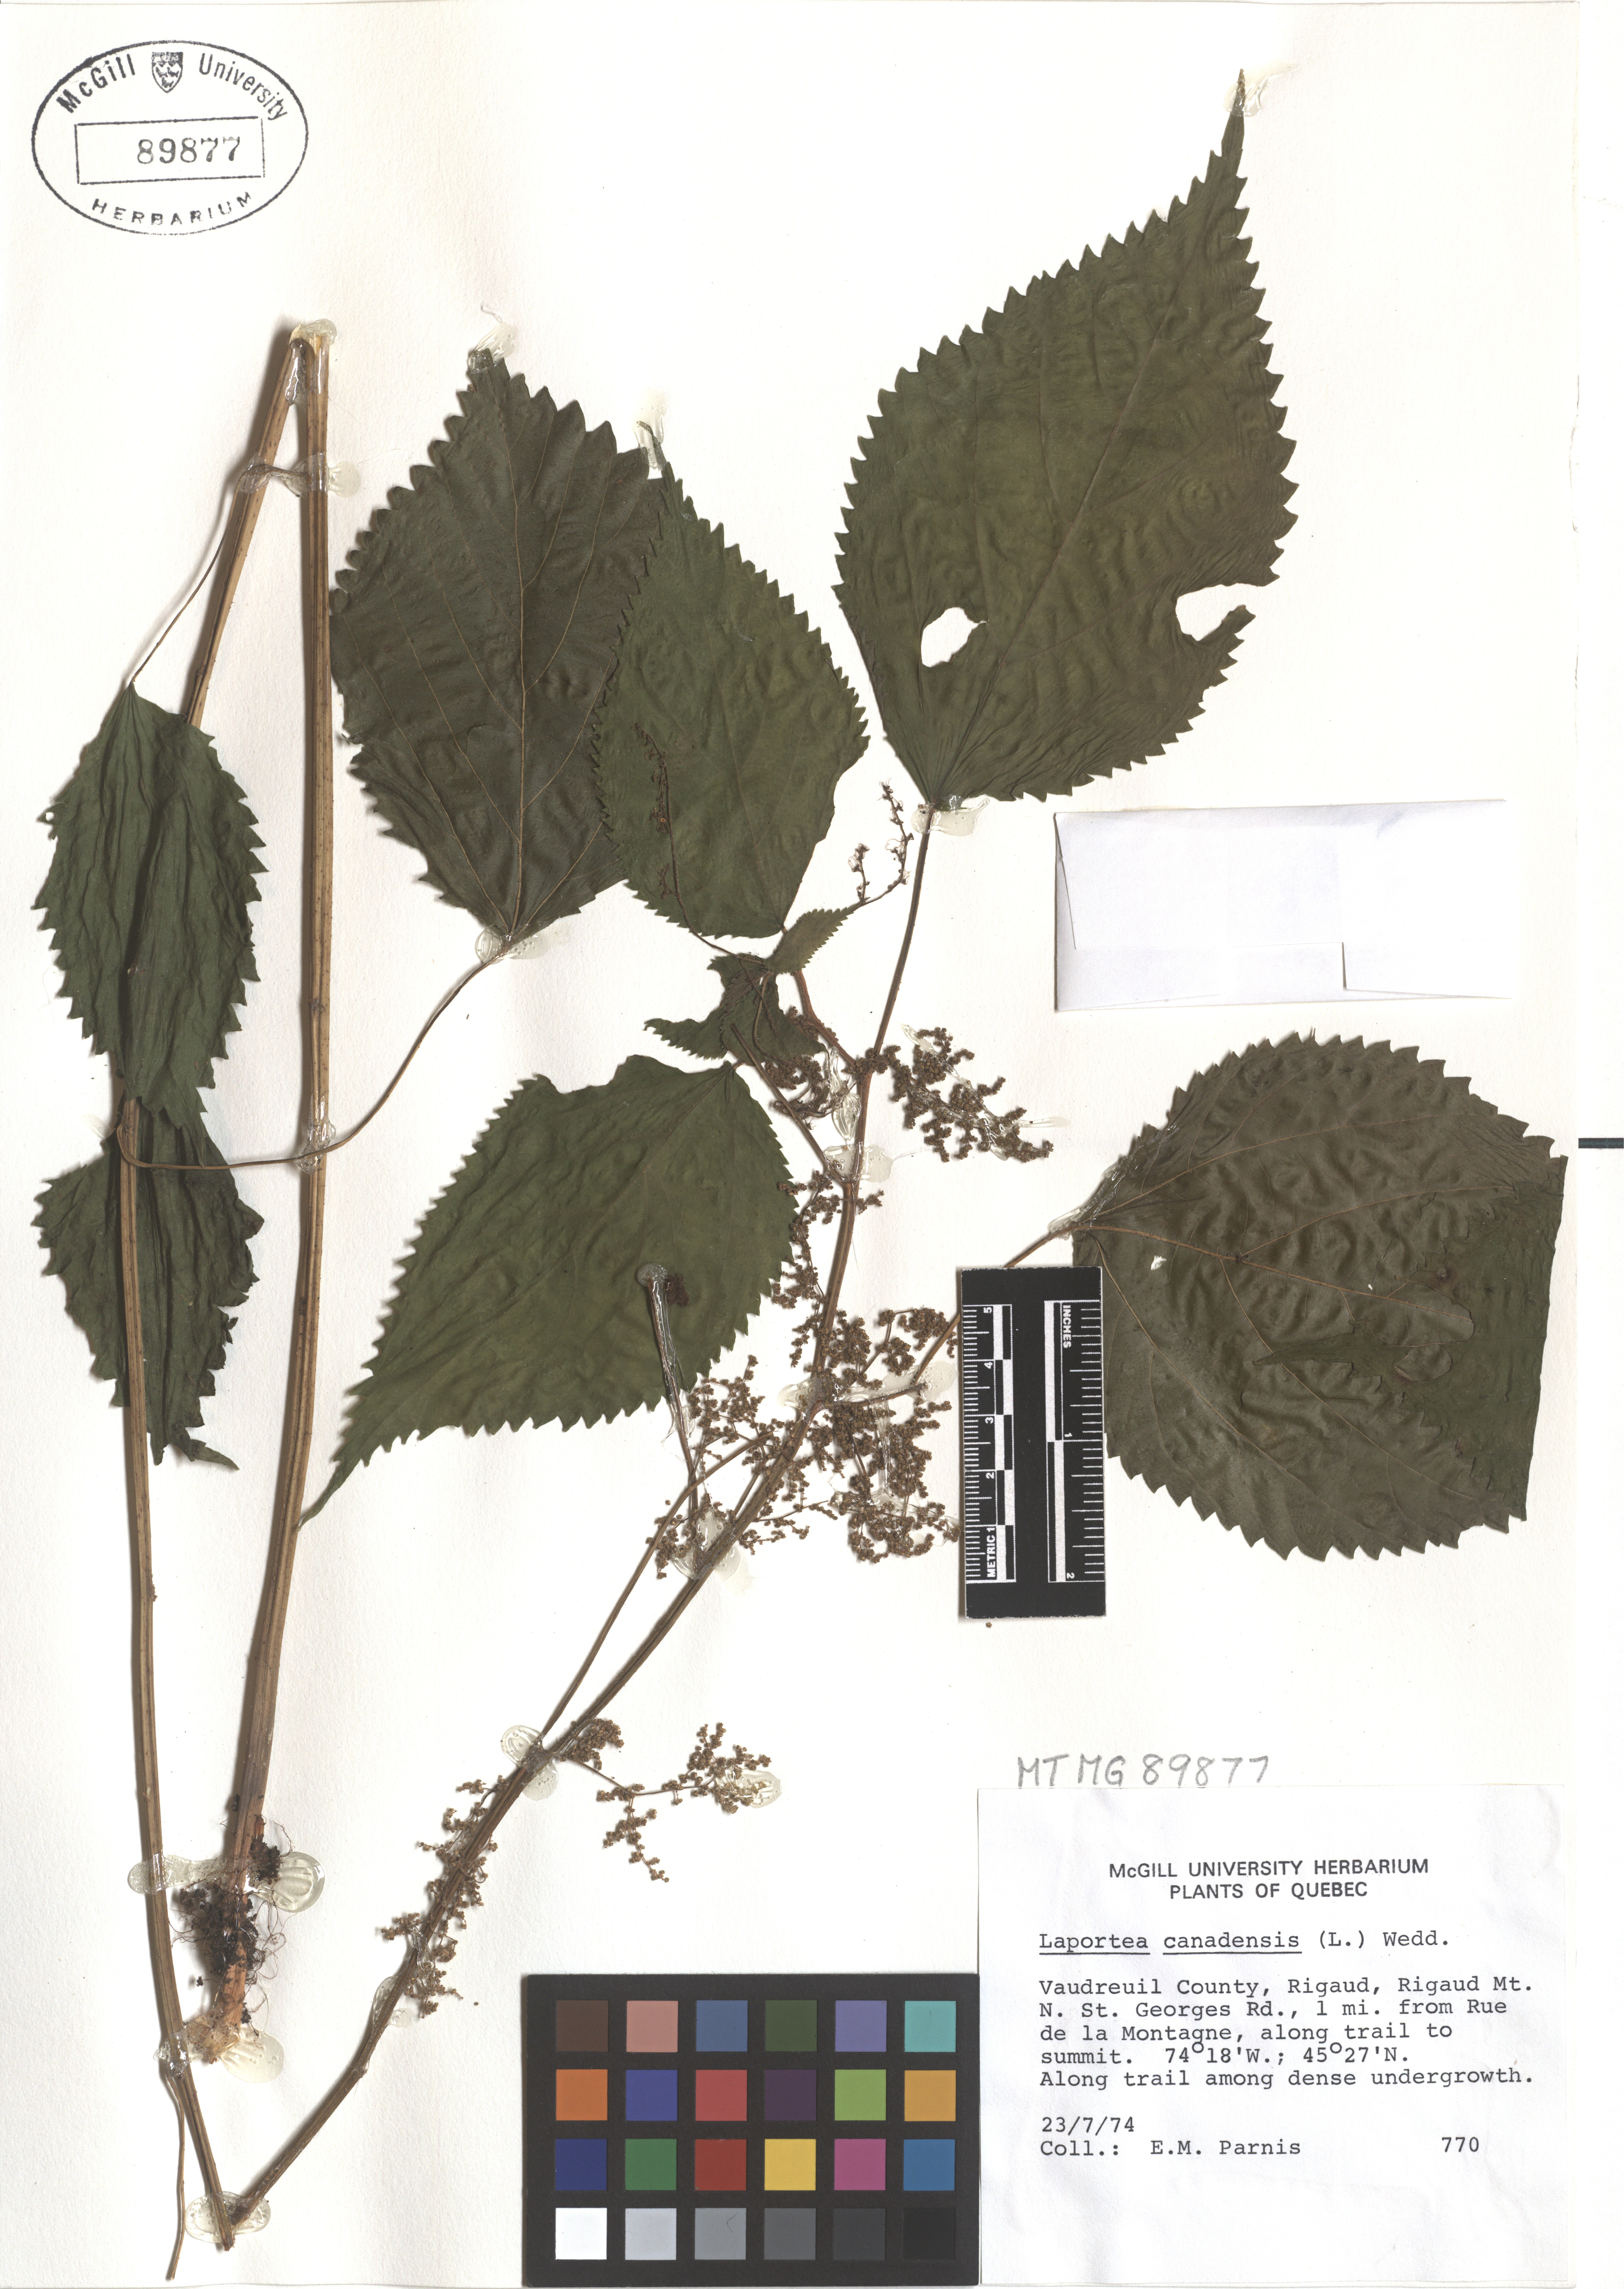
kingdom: Plantae
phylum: Tracheophyta
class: Magnoliopsida
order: Rosales
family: Urticaceae
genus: Laportea
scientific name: Laportea canadensis
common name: Canada nettle
